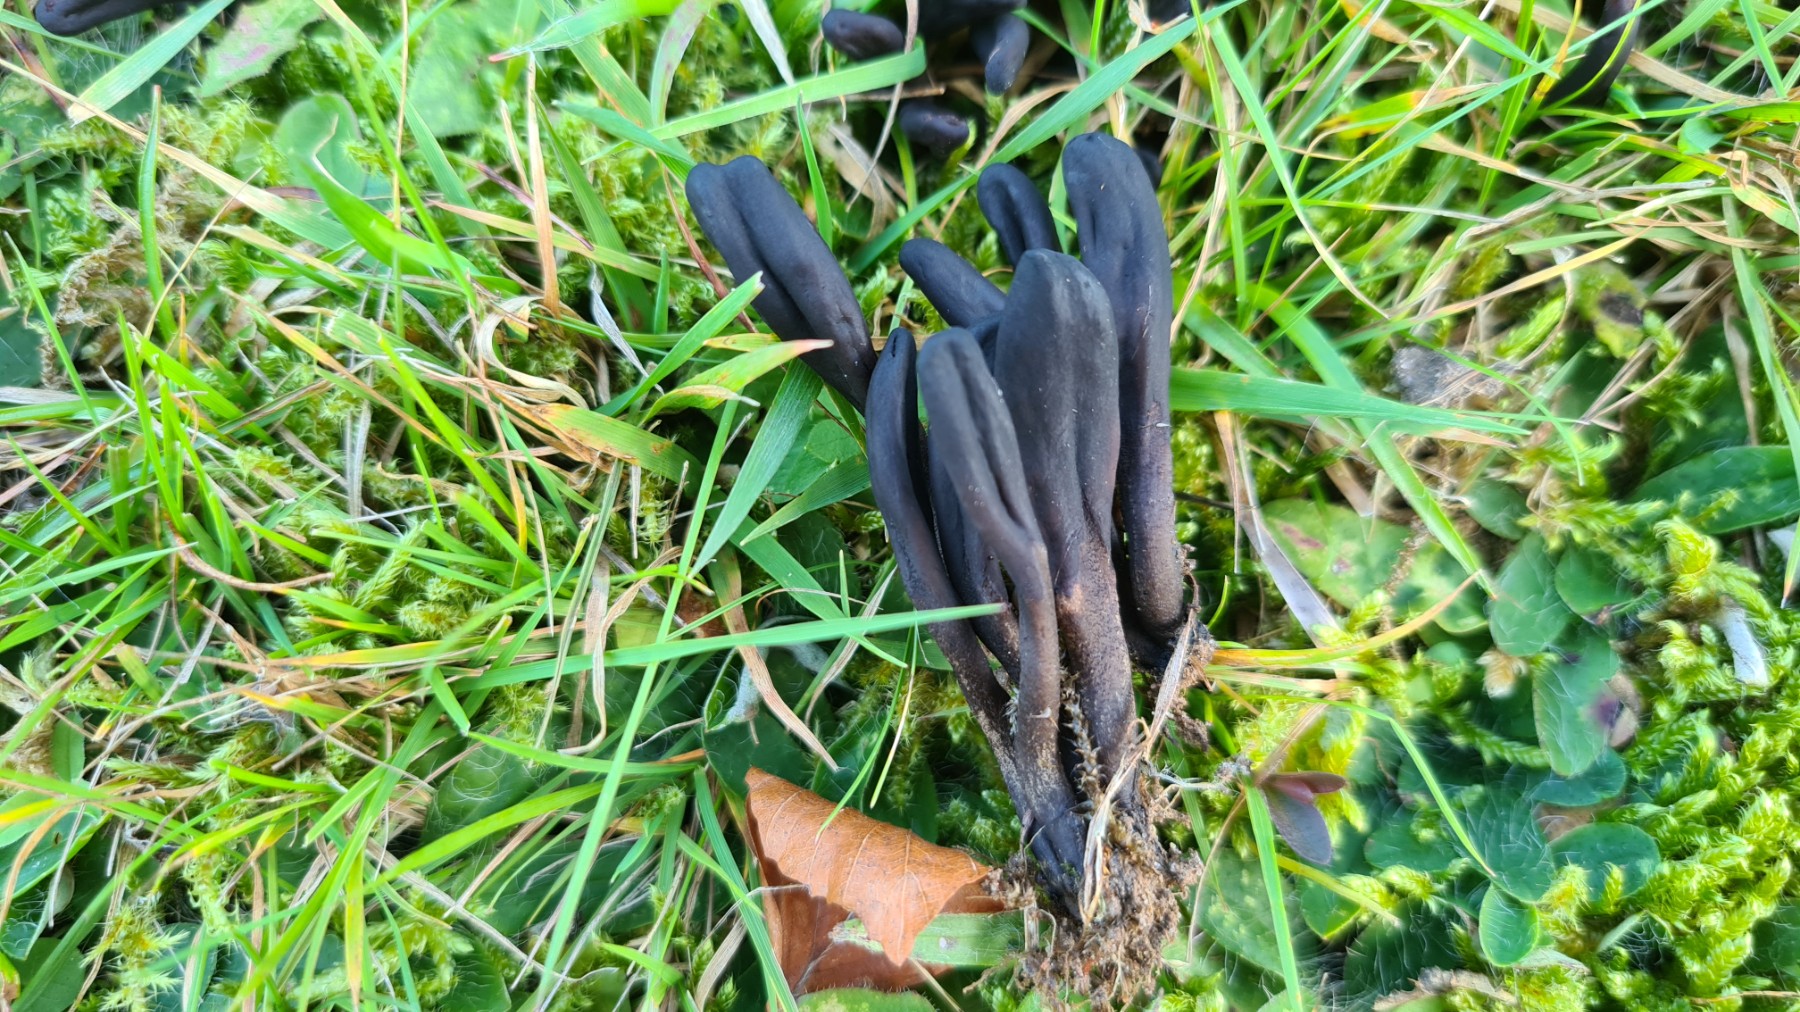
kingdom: Fungi
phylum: Ascomycota
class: Geoglossomycetes
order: Geoglossales
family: Geoglossaceae
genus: Geoglossum
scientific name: Geoglossum
